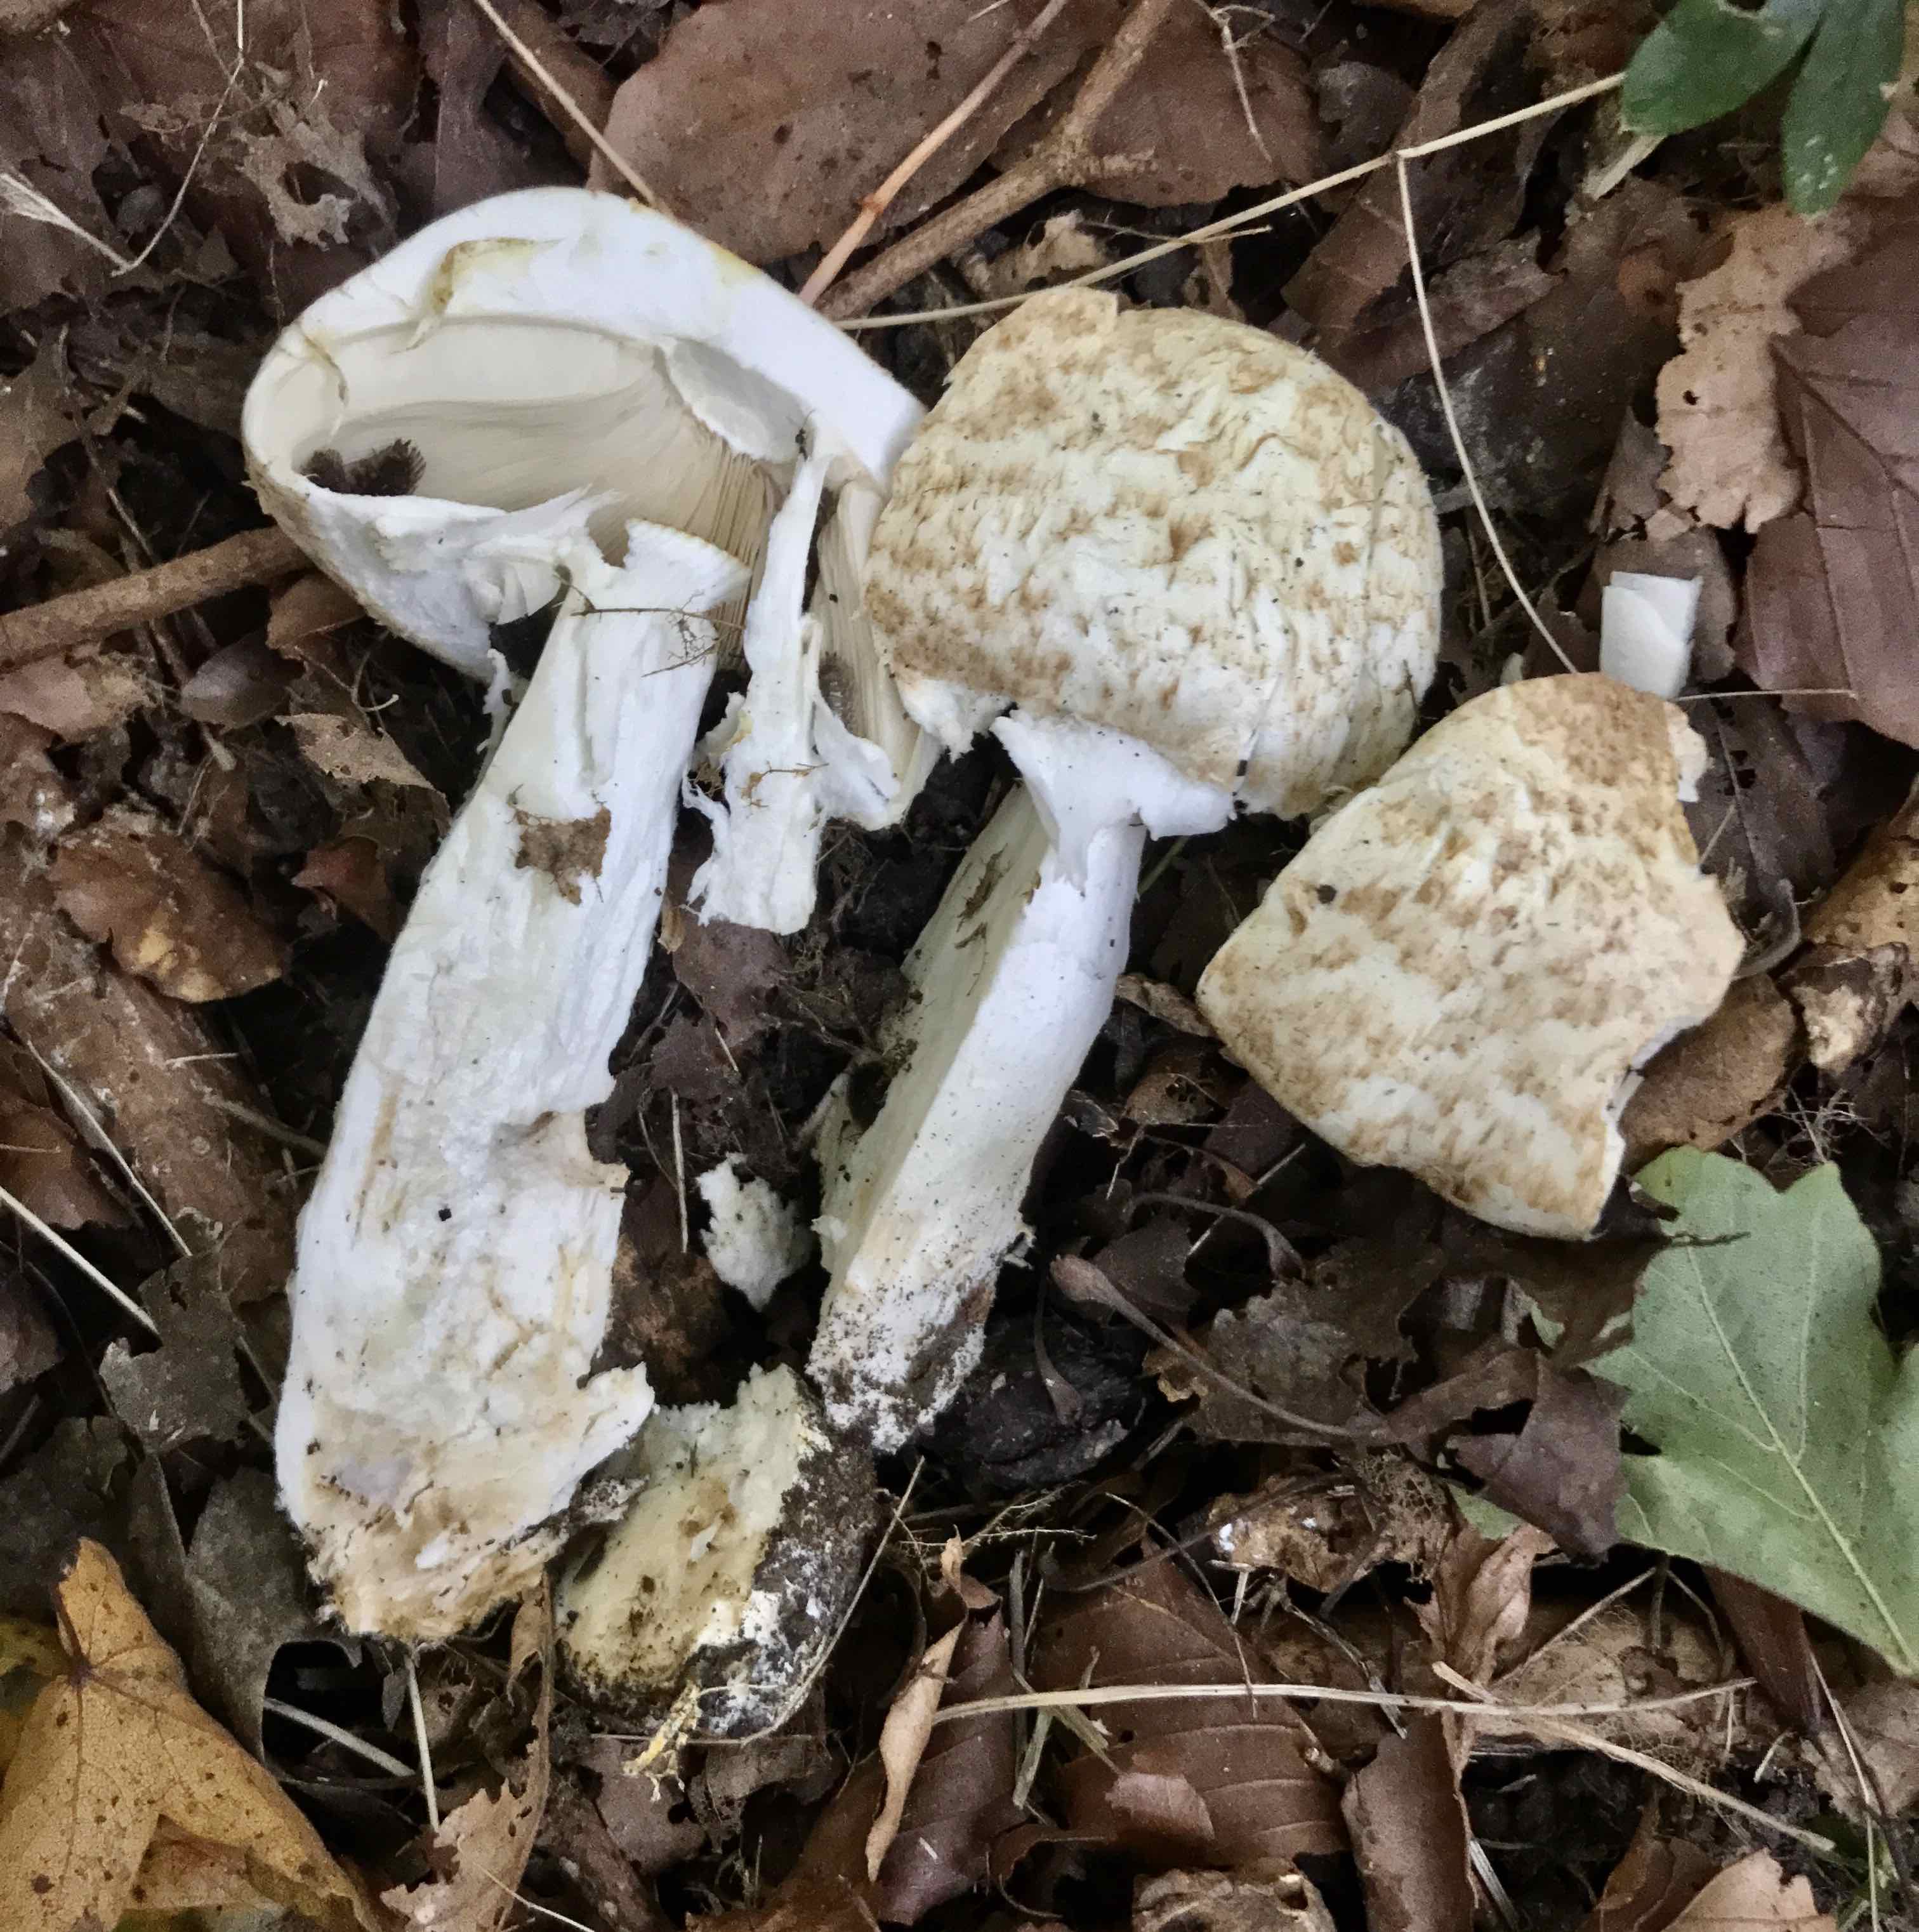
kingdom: Fungi
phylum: Basidiomycota
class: Agaricomycetes
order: Agaricales
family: Agaricaceae
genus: Agaricus
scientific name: Agaricus augustus
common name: prægtig champignon
